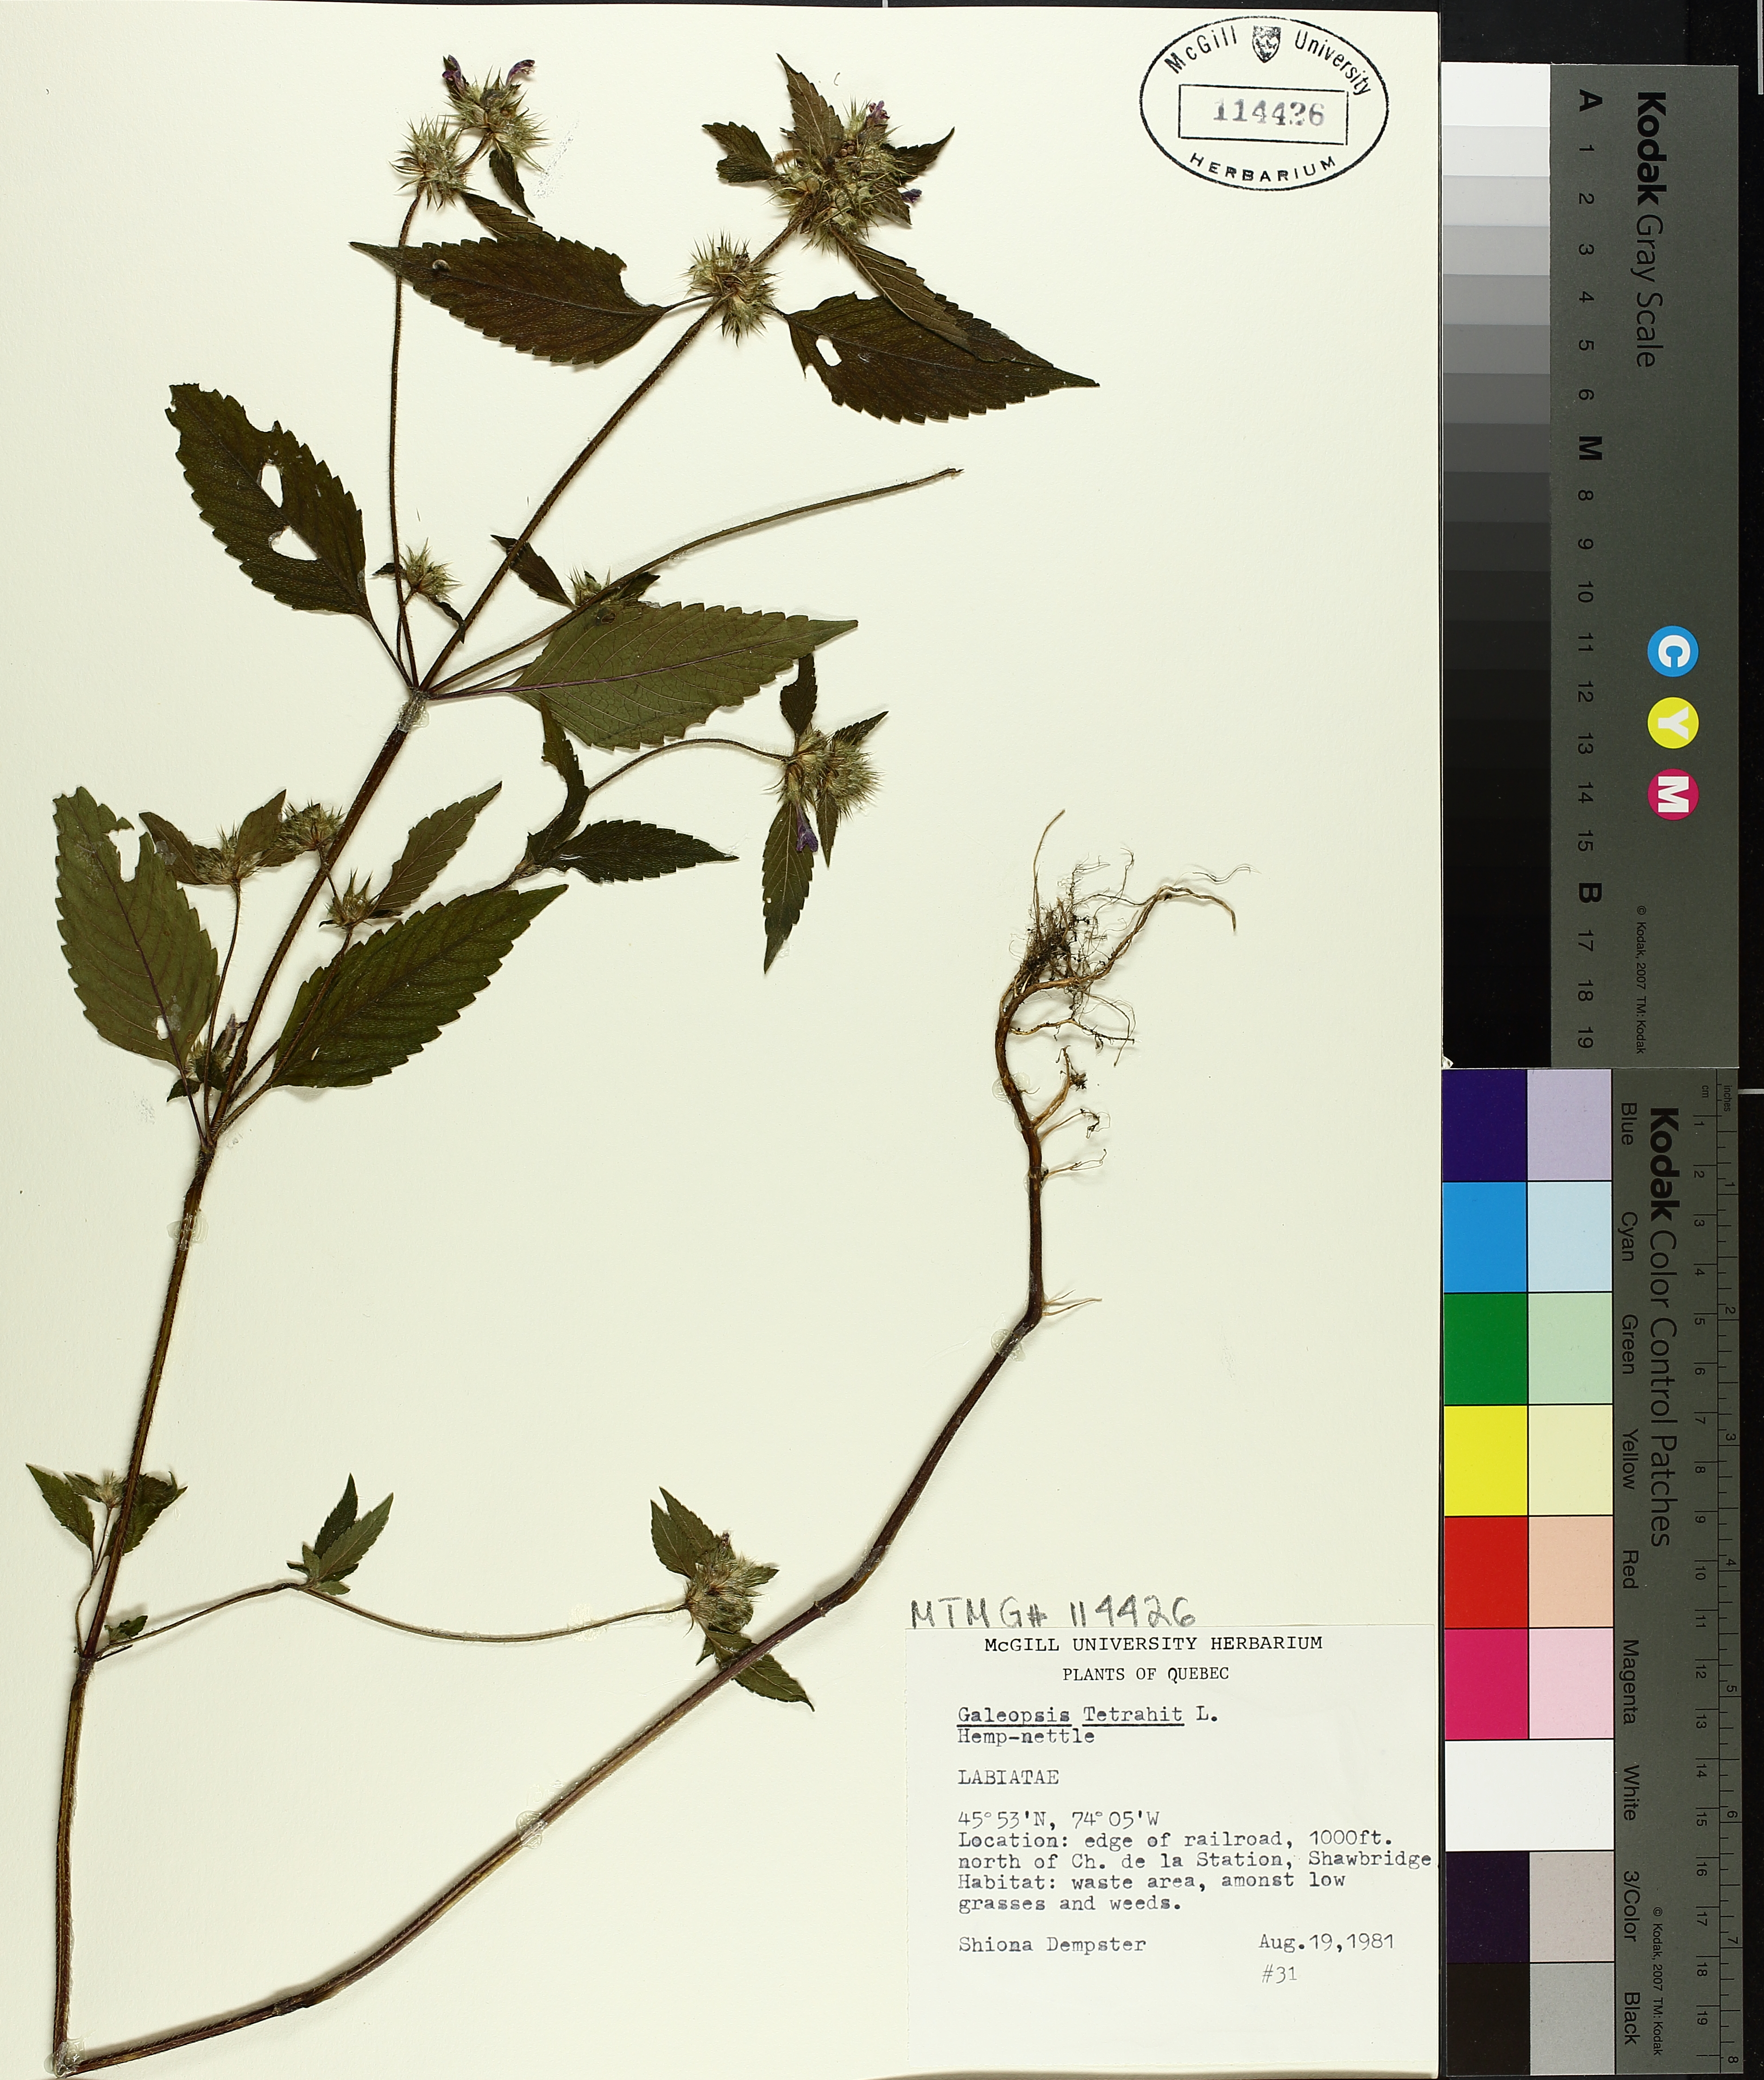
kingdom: Plantae
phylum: Tracheophyta
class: Magnoliopsida
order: Lamiales
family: Lamiaceae
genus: Galeopsis
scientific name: Galeopsis tetrahit
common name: Common hemp-nettle
